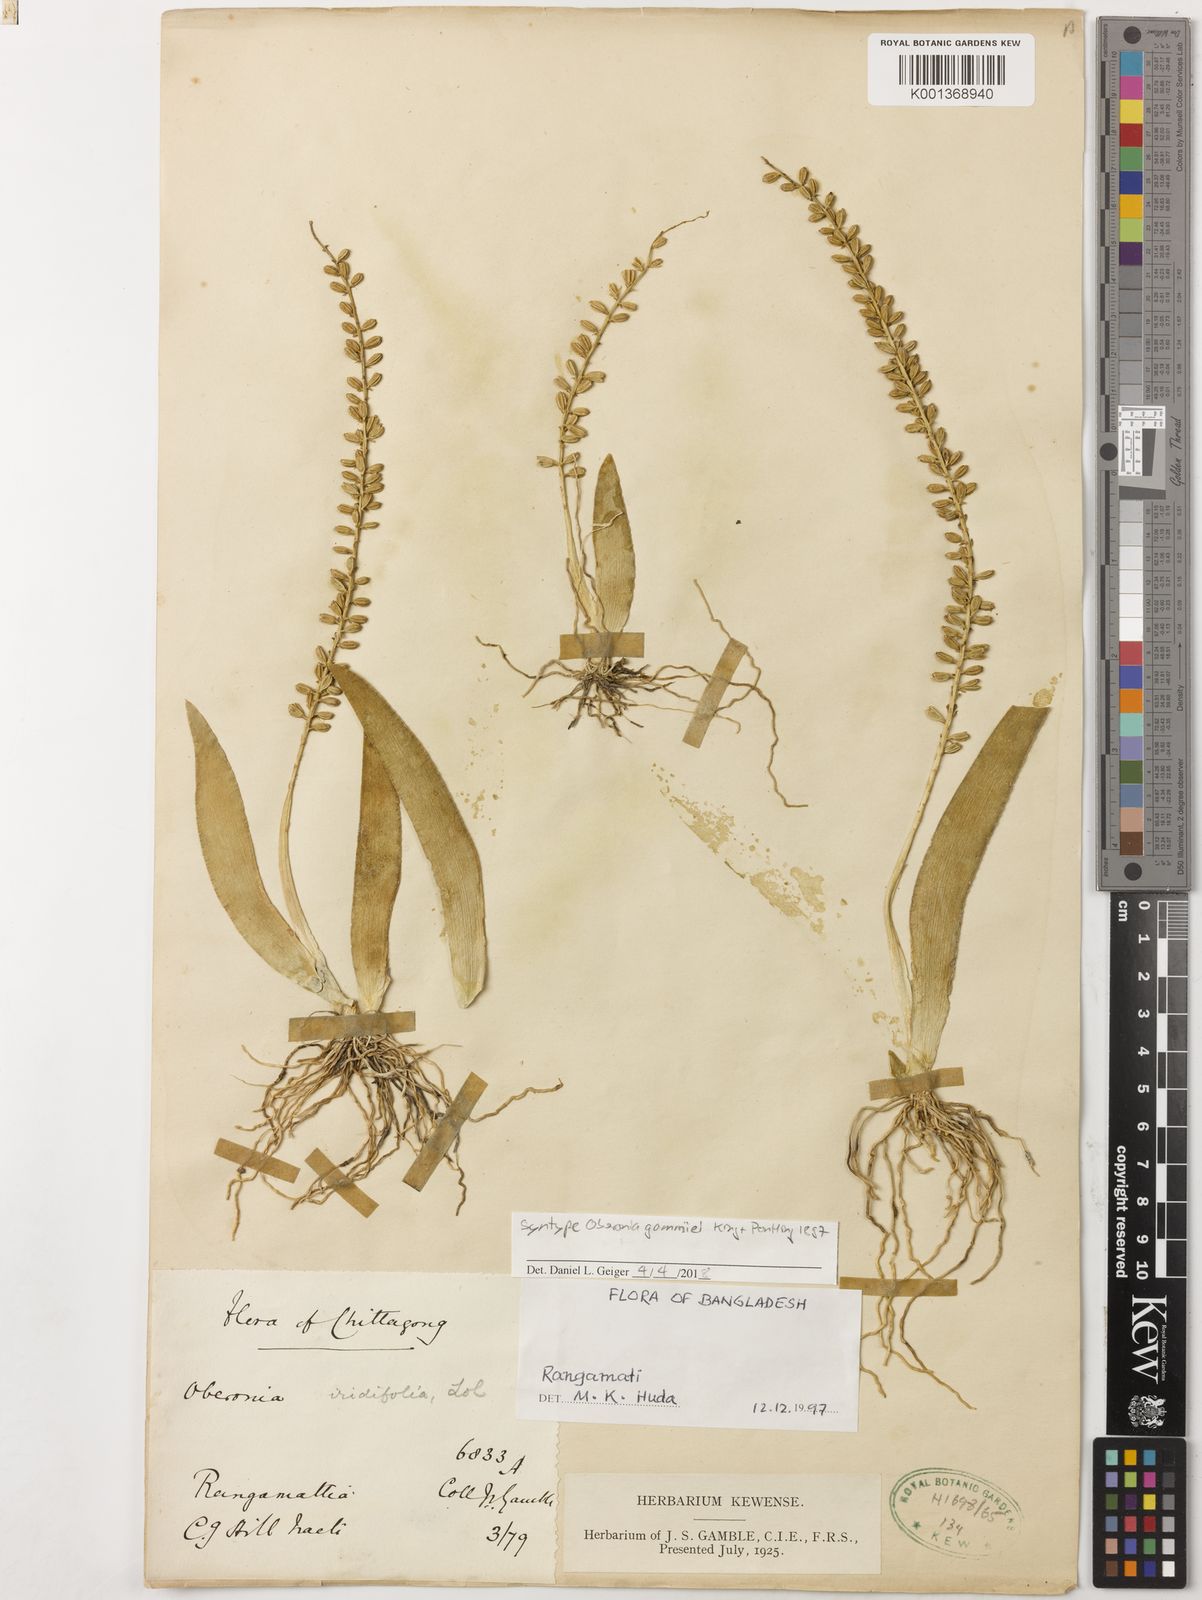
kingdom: Plantae
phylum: Tracheophyta
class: Liliopsida
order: Asparagales
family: Orchidaceae
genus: Oberonia
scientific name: Oberonia gammiei
